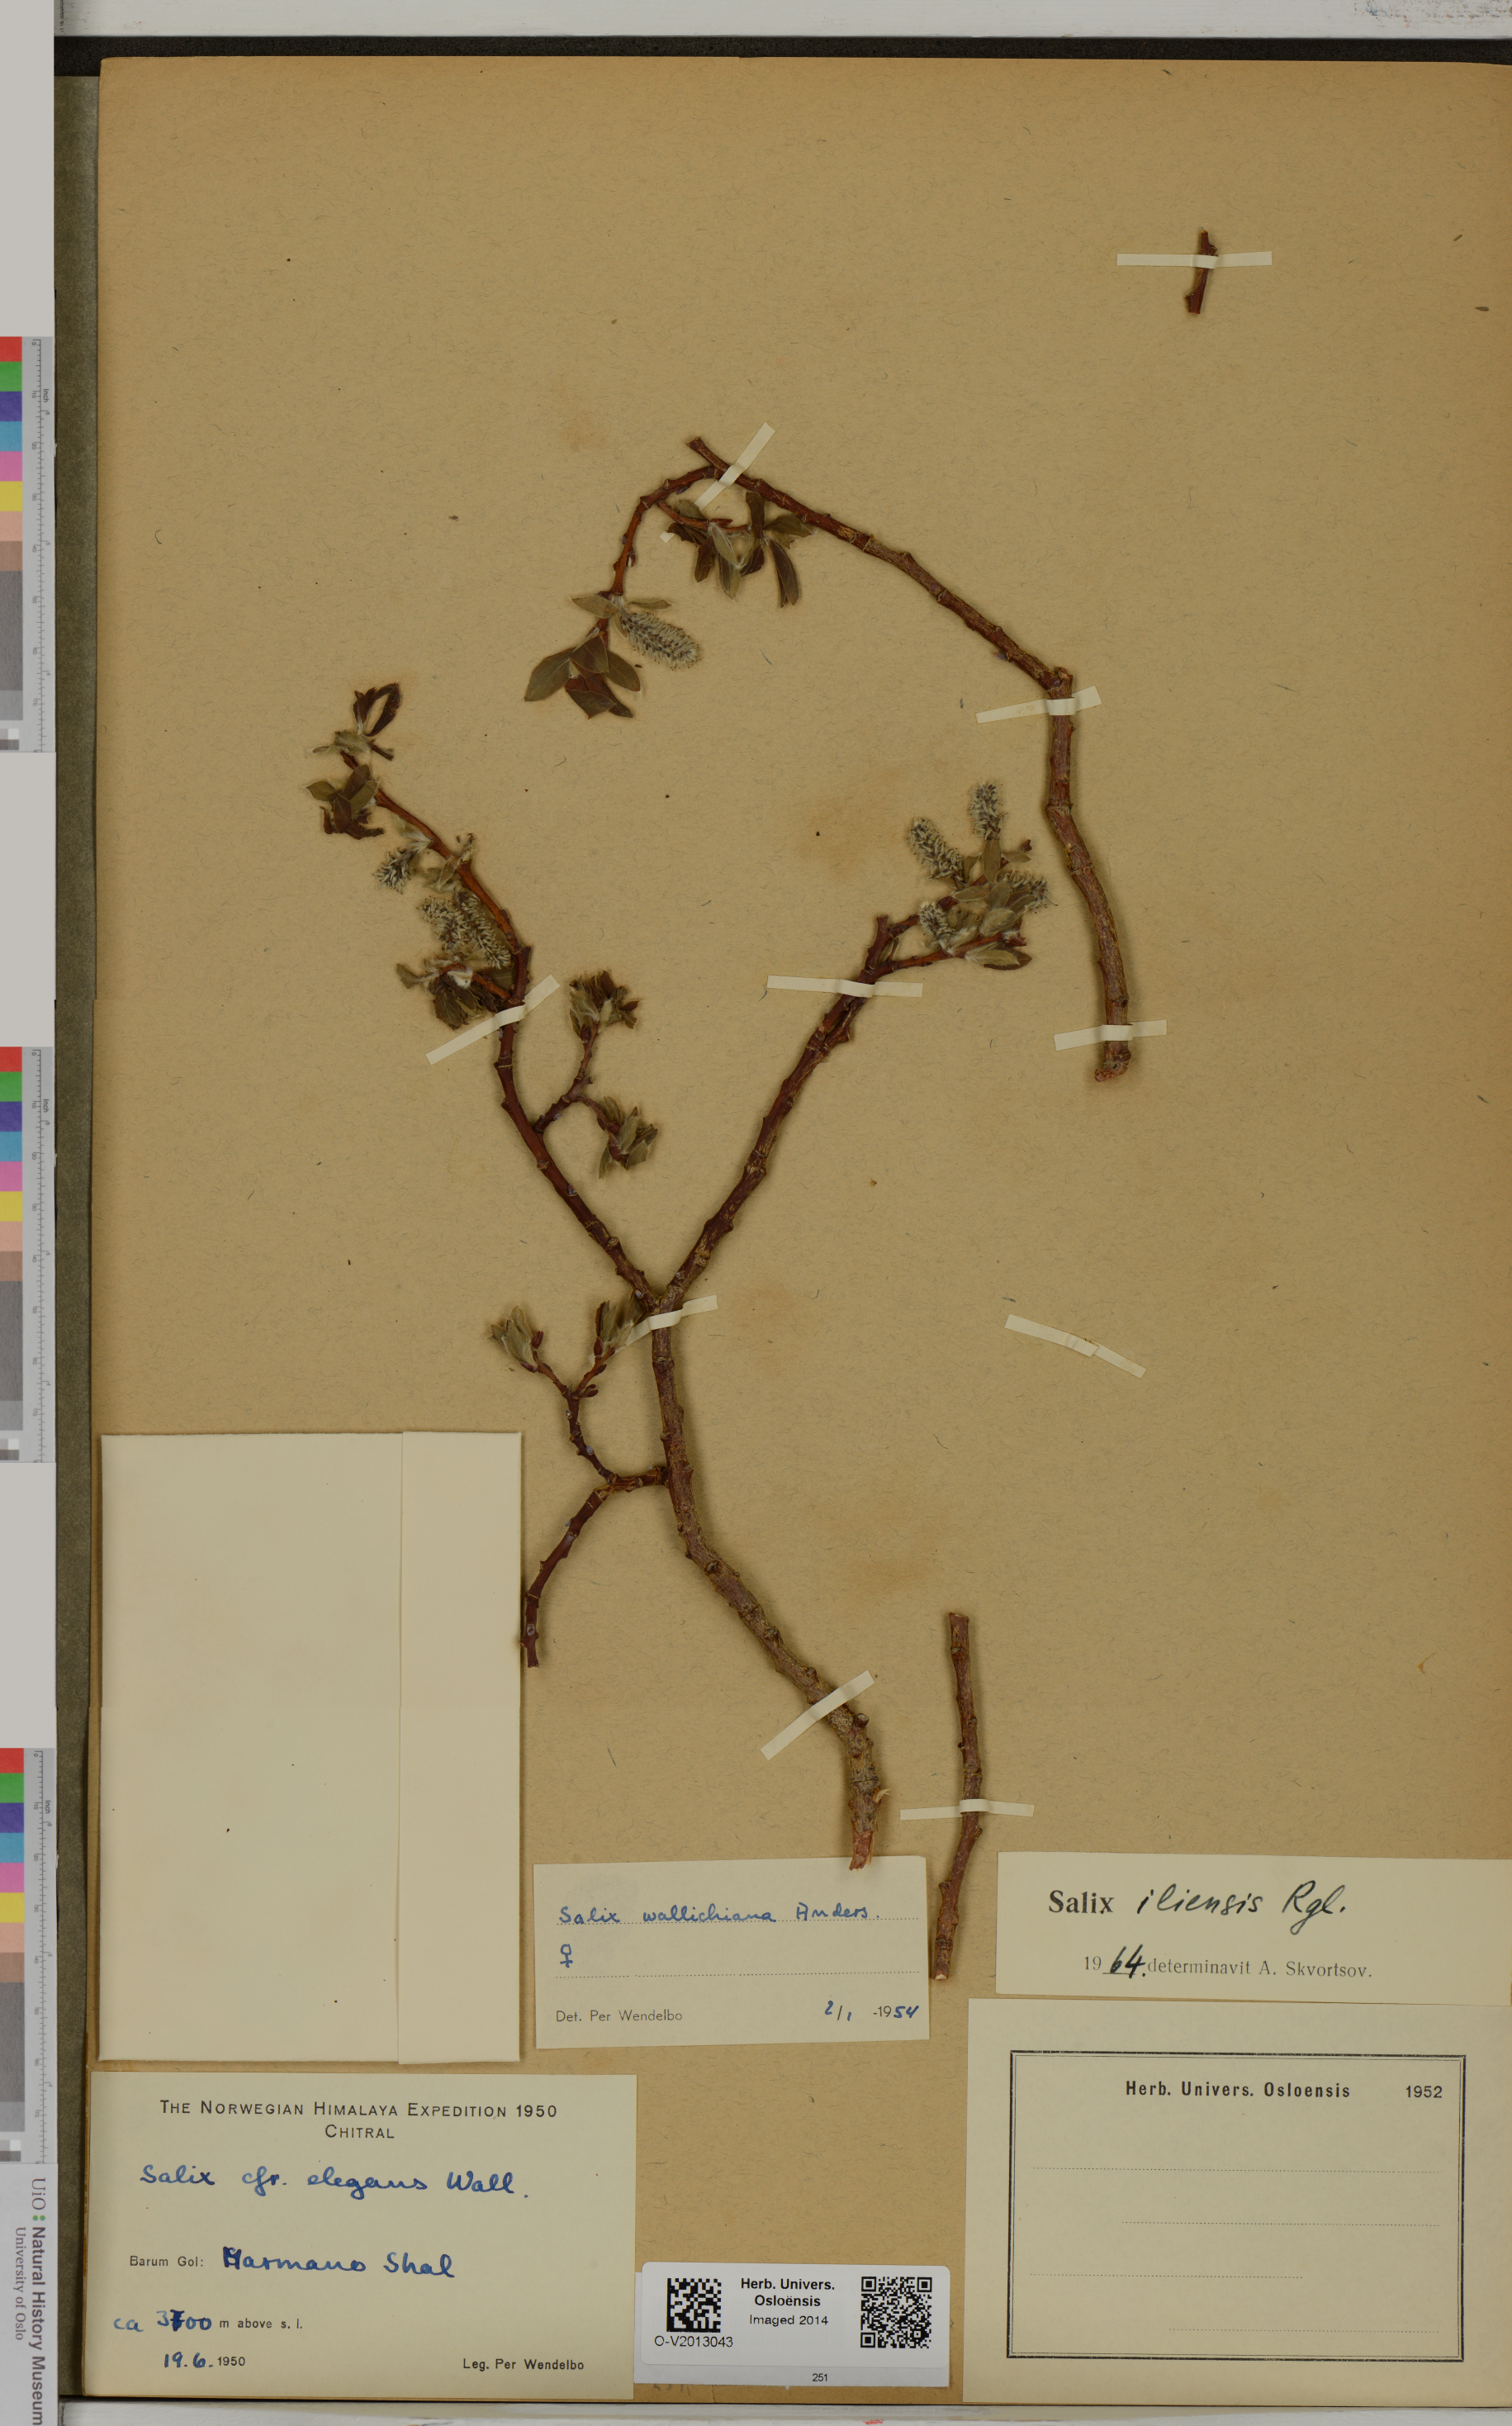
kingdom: Plantae
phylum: Tracheophyta
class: Magnoliopsida
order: Malpighiales
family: Salicaceae
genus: Salix
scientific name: Salix iliensis
